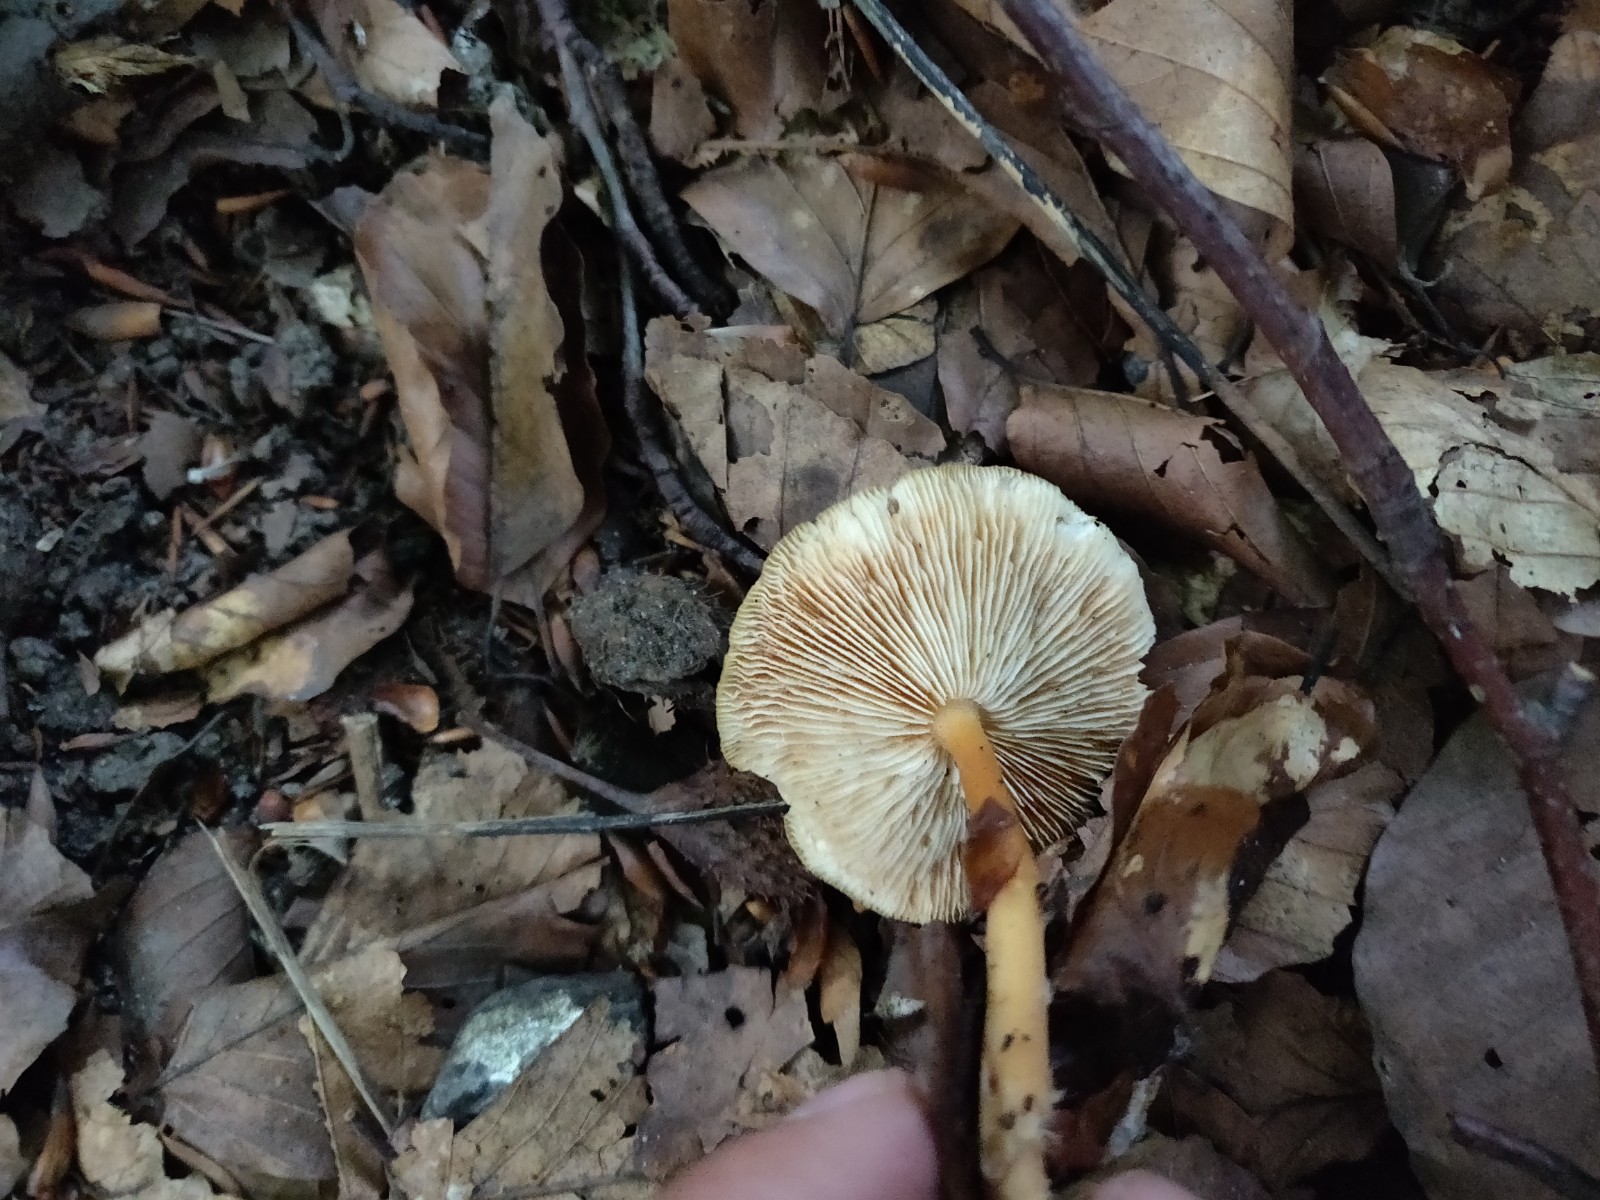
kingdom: Fungi
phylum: Basidiomycota
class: Agaricomycetes
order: Agaricales
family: Omphalotaceae
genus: Gymnopus
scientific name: Gymnopus
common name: fladhat
